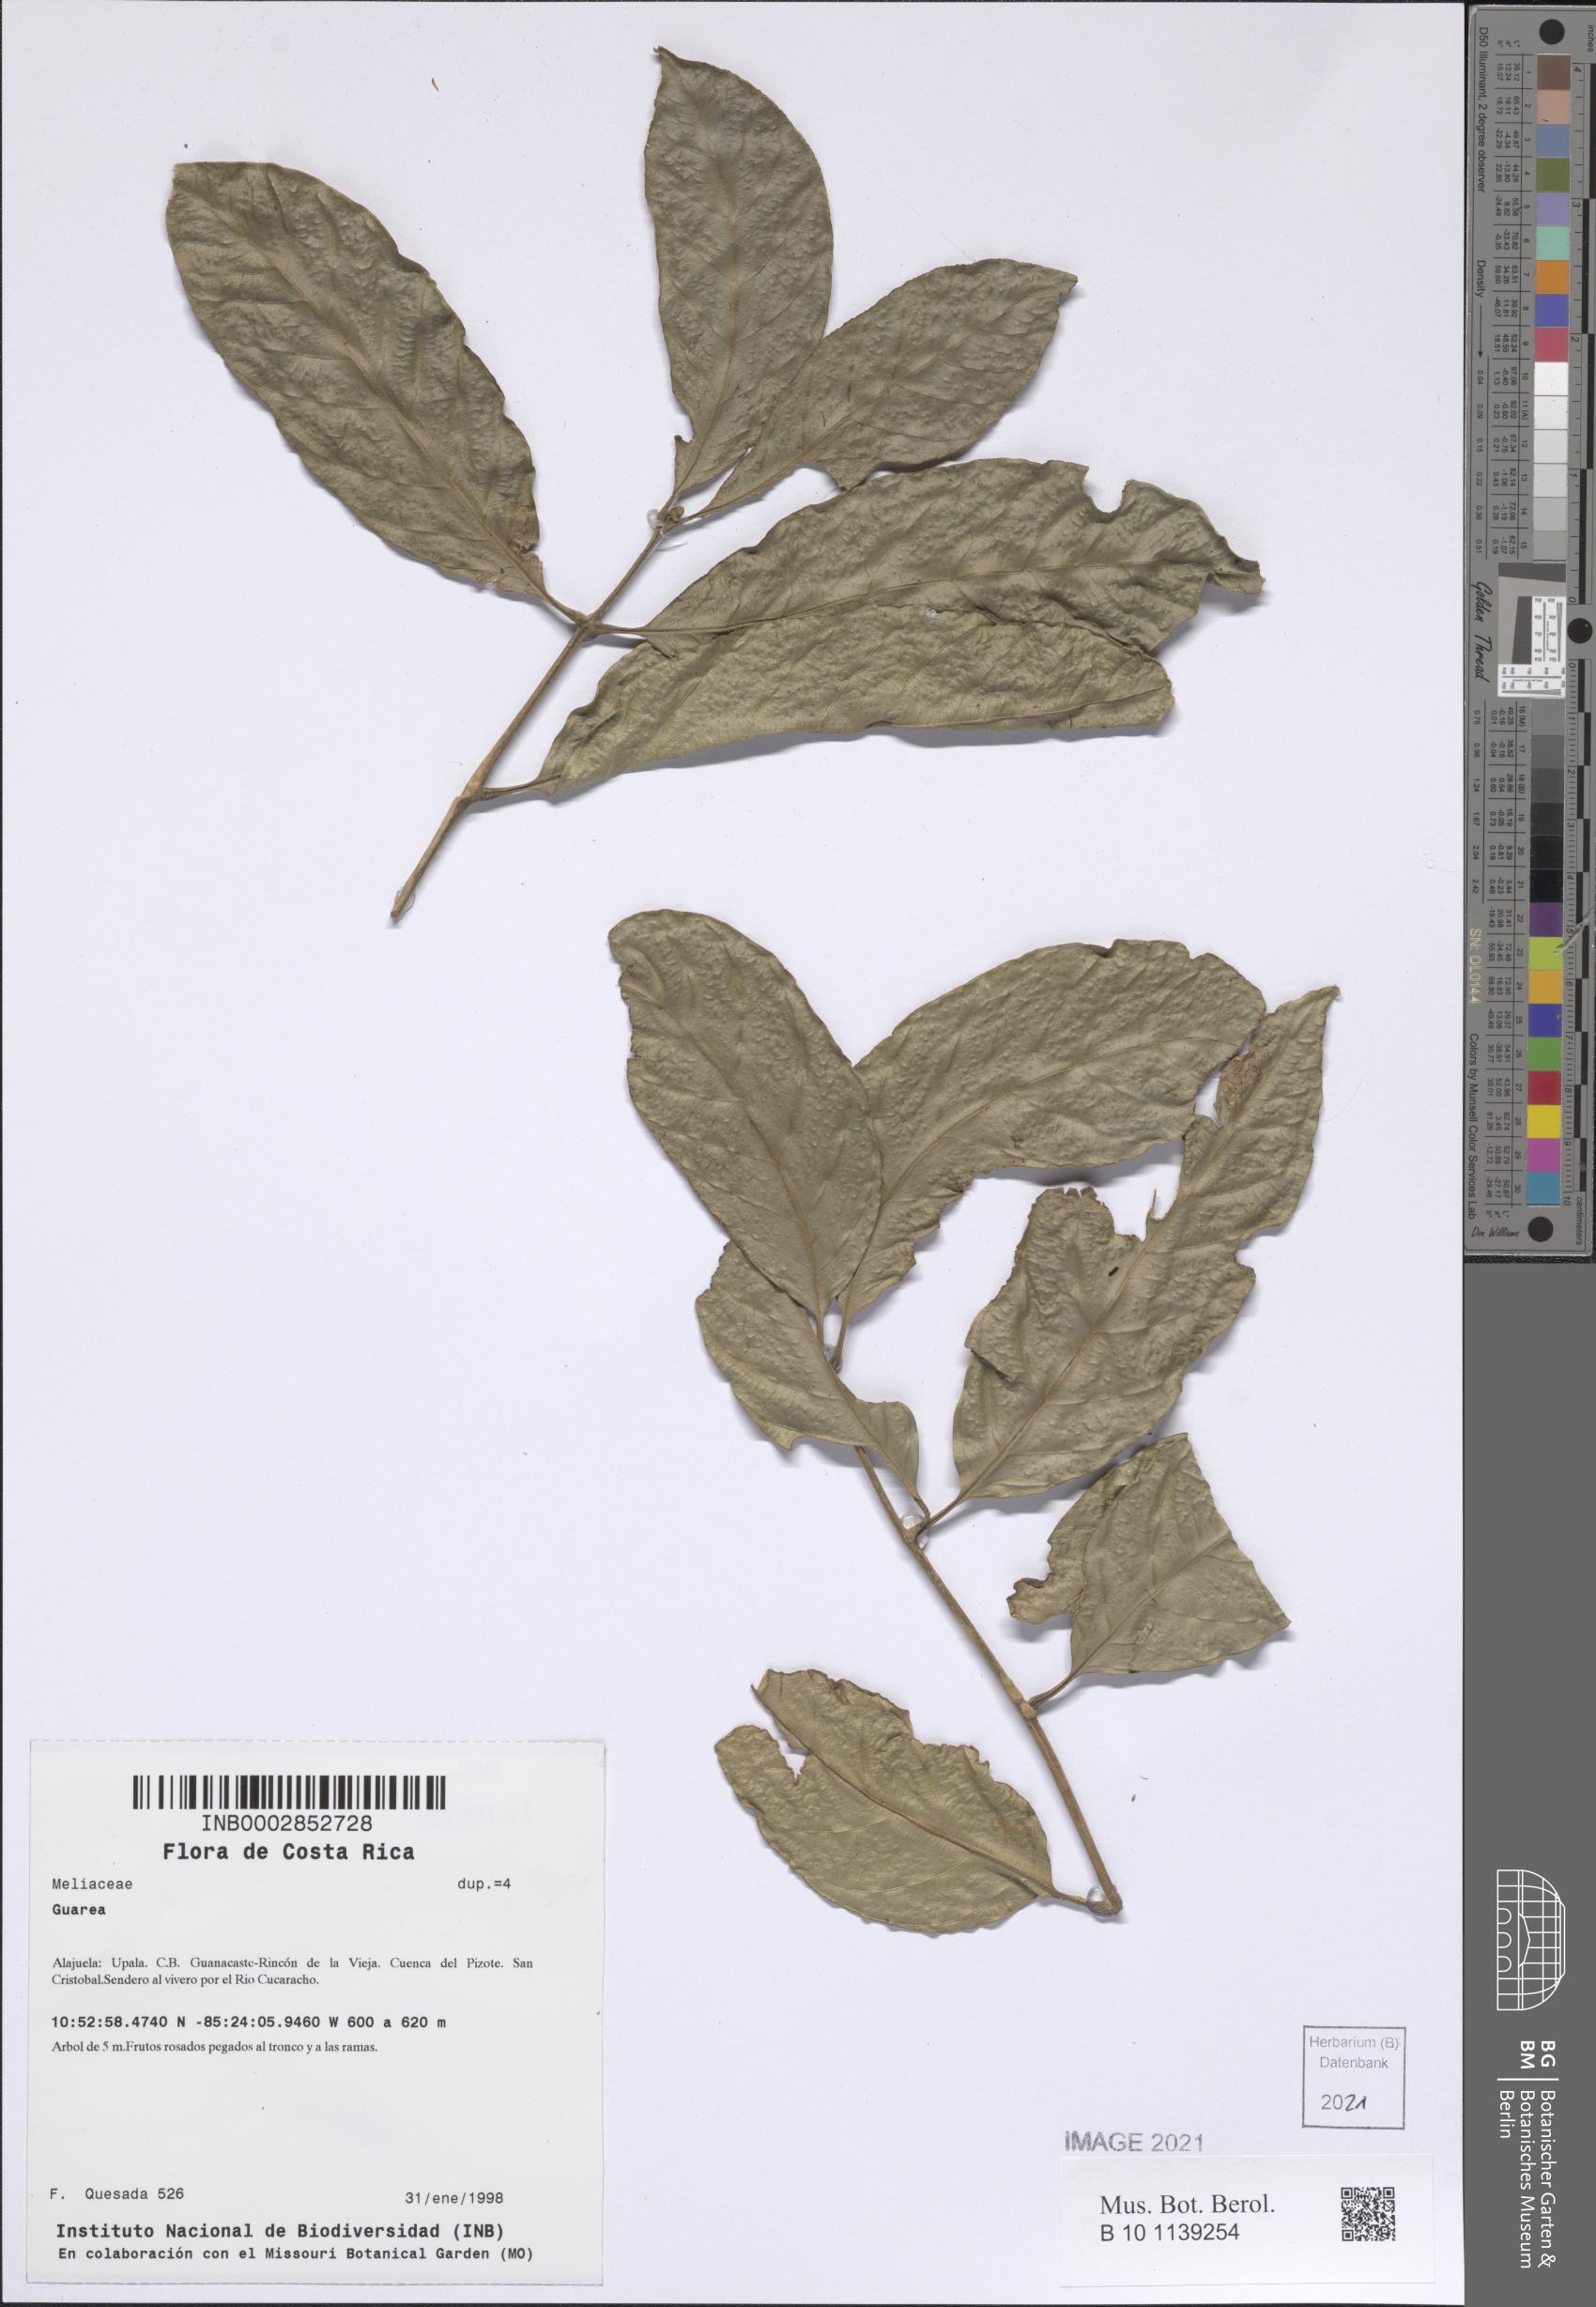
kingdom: Plantae
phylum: Tracheophyta
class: Magnoliopsida
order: Sapindales
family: Meliaceae
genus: Guarea
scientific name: Guarea
